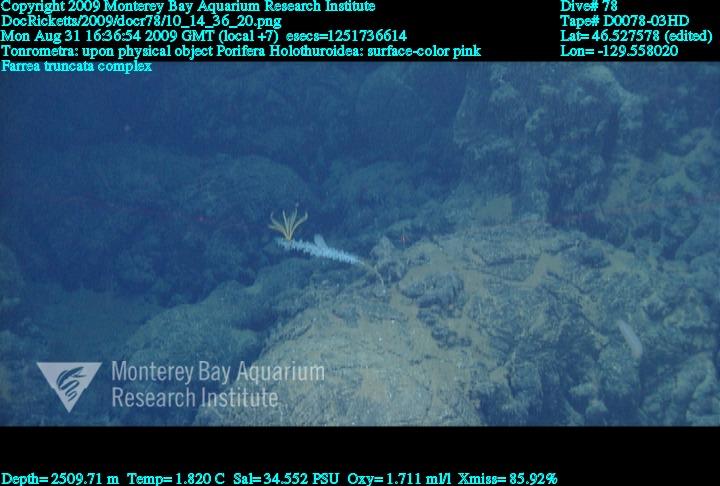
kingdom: Animalia
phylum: Porifera
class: Hexactinellida
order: Sceptrulophora
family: Farreidae
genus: Farrea
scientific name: Farrea truncata
